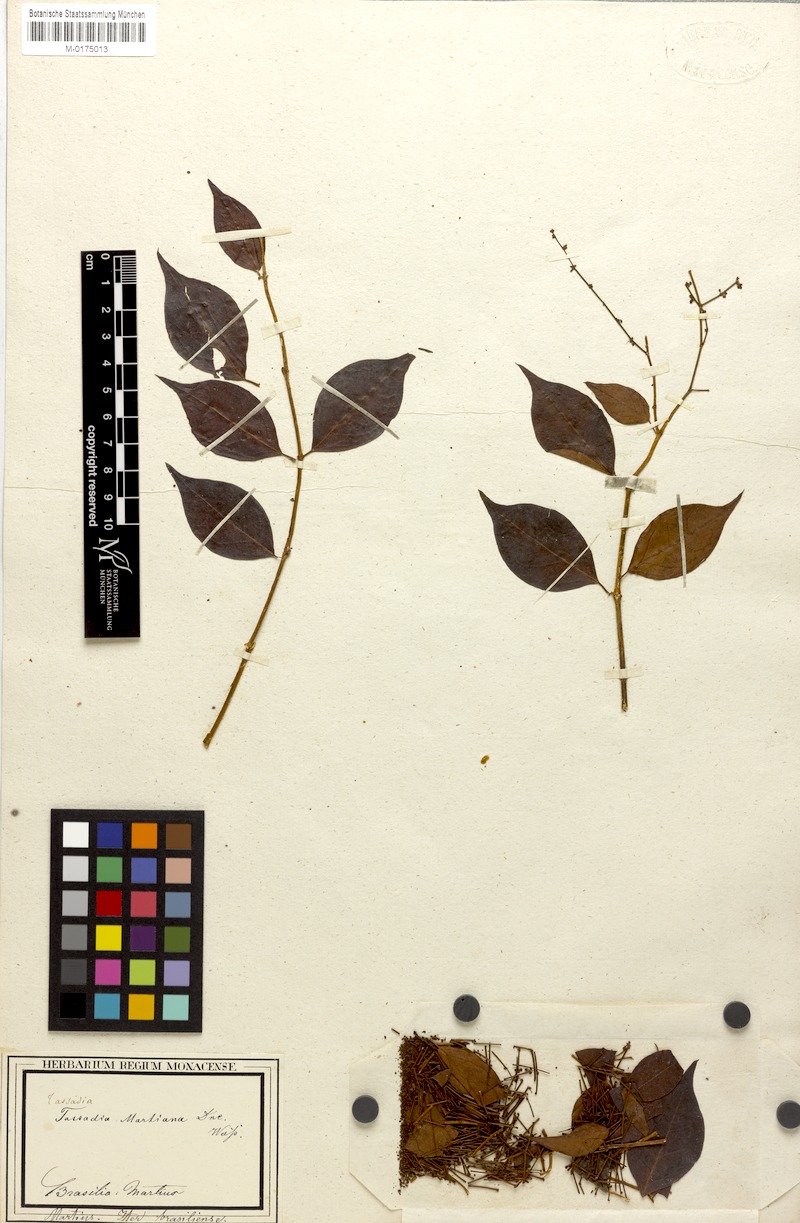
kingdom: Plantae
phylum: Tracheophyta
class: Magnoliopsida
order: Gentianales
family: Apocynaceae
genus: Tassadia
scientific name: Tassadia martiana
